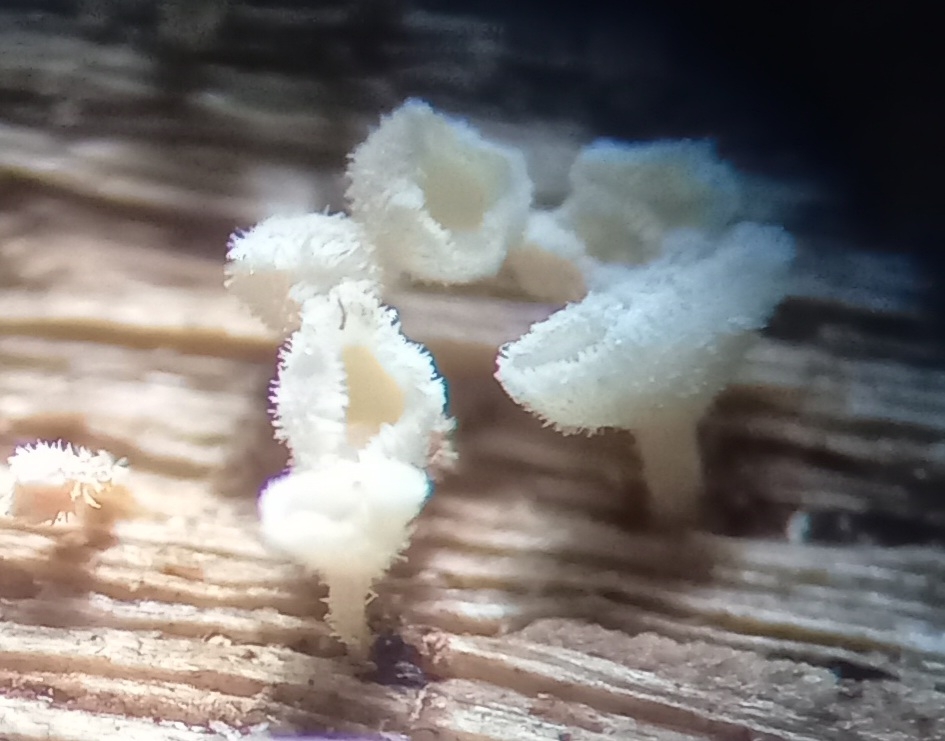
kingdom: Fungi
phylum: Ascomycota
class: Leotiomycetes
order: Helotiales
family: Lachnaceae
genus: Lachnum
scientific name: Lachnum
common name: frynseskive
